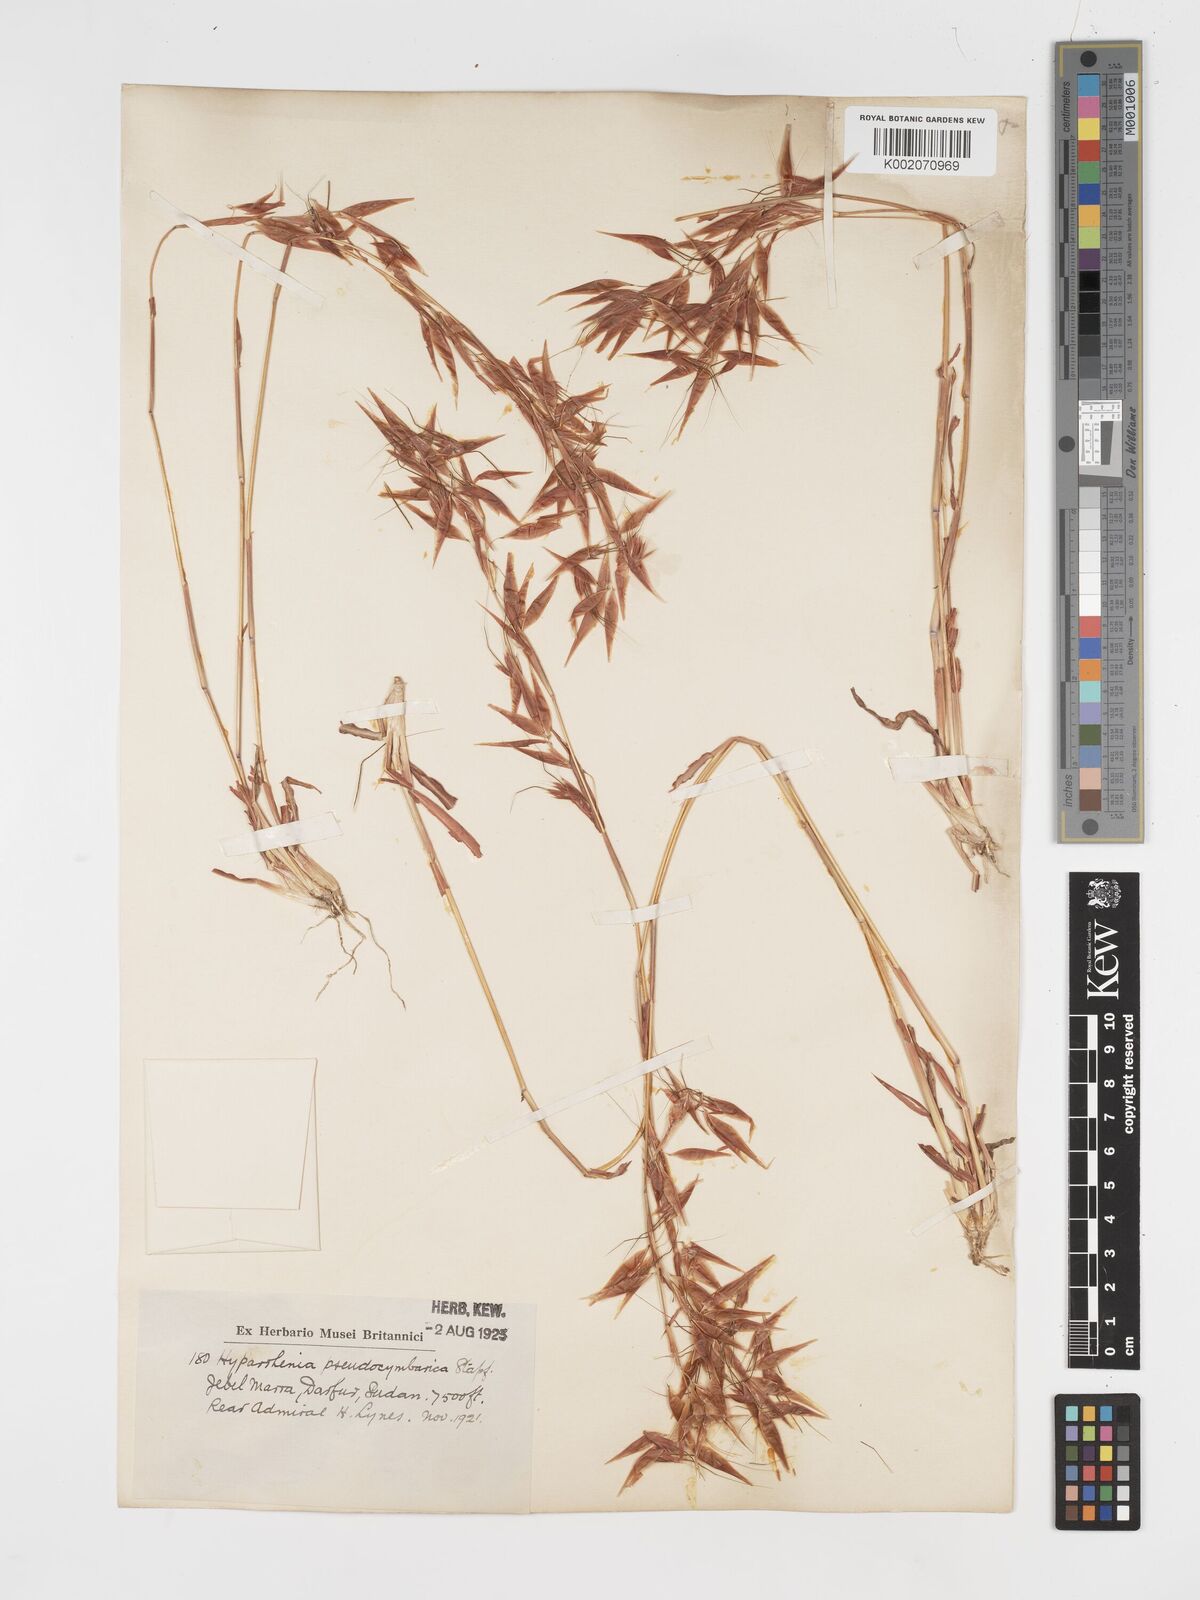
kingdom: Plantae
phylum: Tracheophyta
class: Liliopsida
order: Poales
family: Poaceae
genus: Hyparrhenia
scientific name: Hyparrhenia anthistirioides
